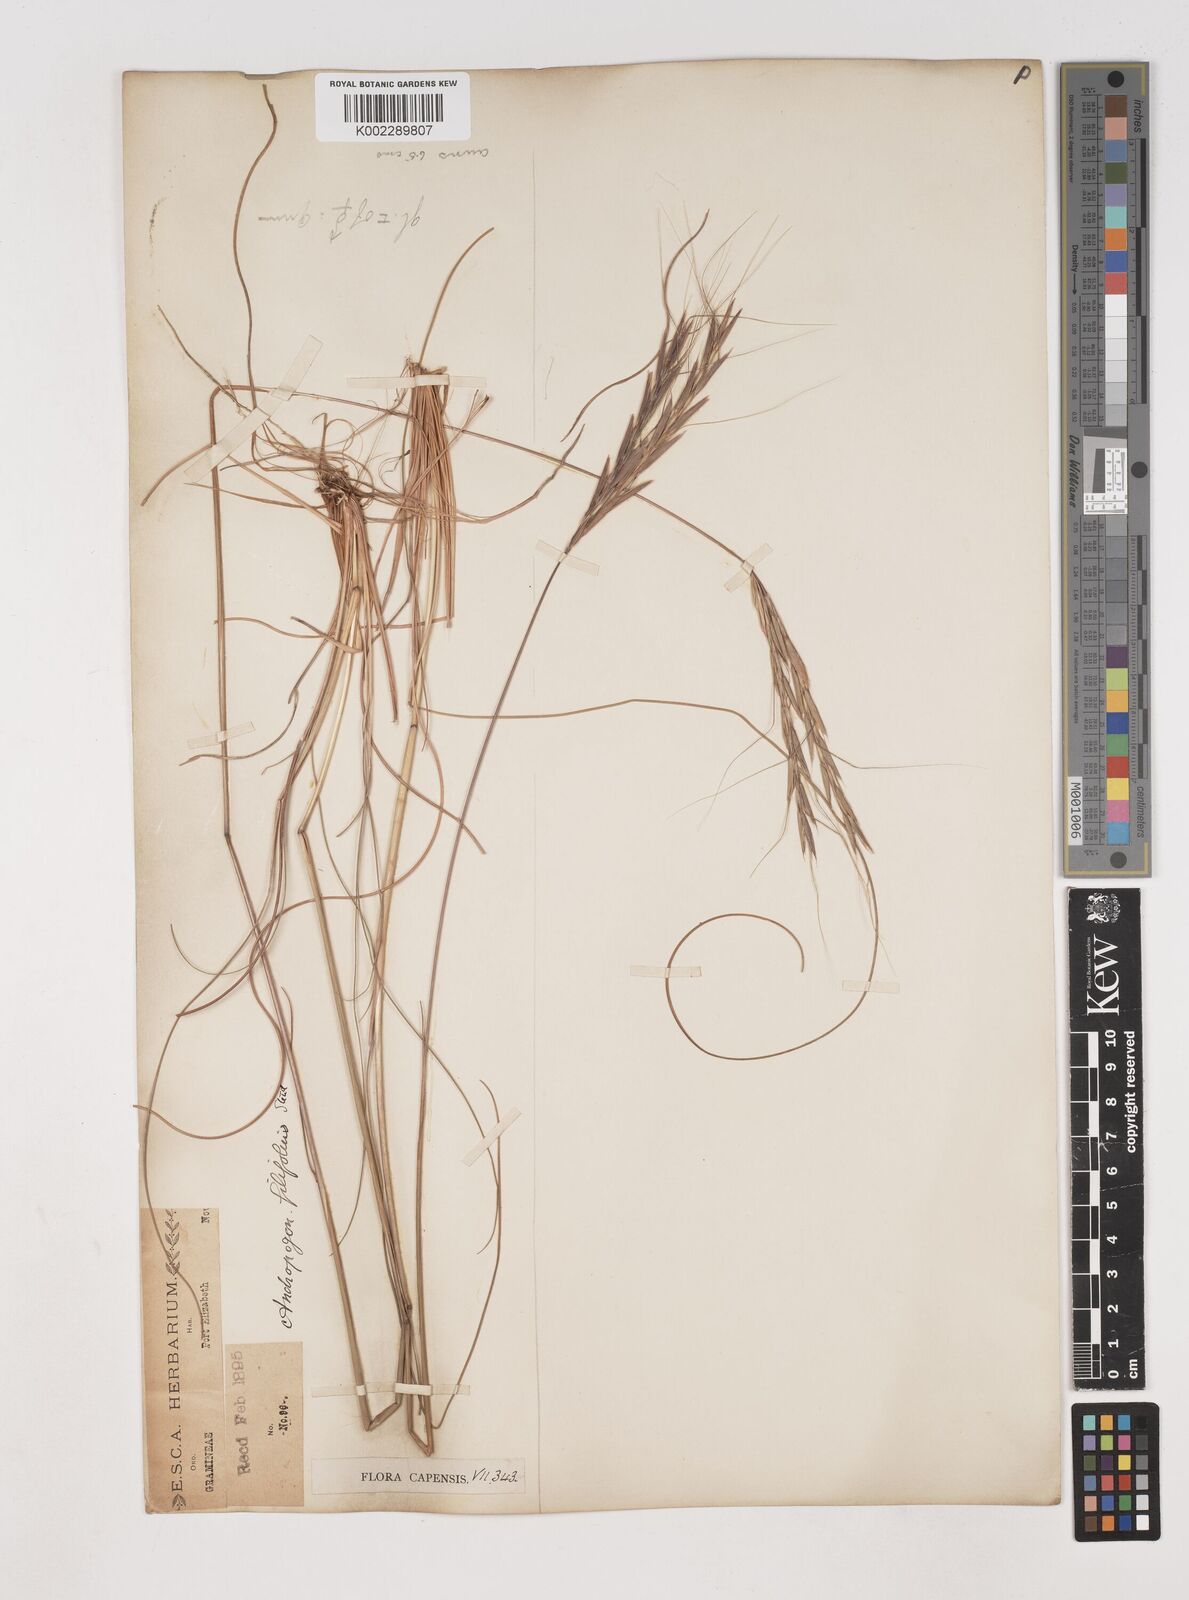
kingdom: Plantae
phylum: Tracheophyta
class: Liliopsida
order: Poales
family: Poaceae
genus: Diheteropogon
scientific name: Diheteropogon filifolius
